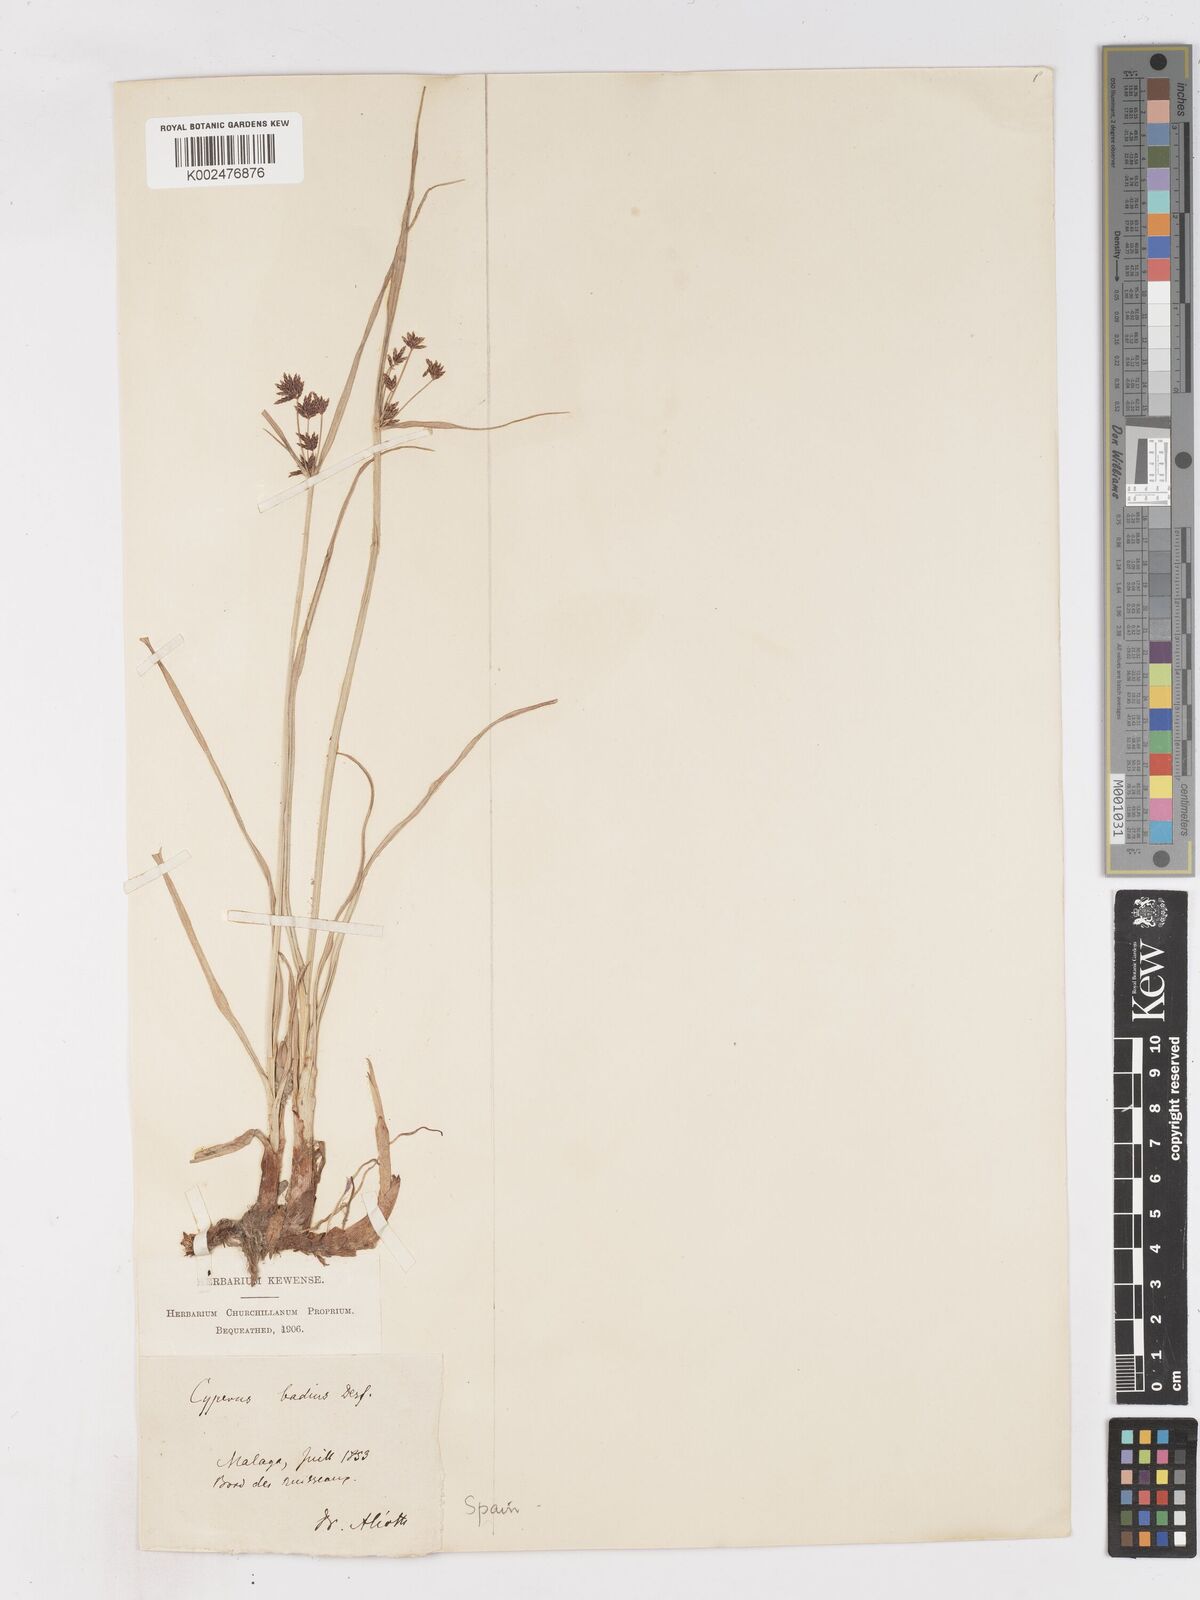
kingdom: Plantae
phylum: Tracheophyta
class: Liliopsida
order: Poales
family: Cyperaceae
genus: Cyperus
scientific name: Cyperus longus
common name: Galingale
